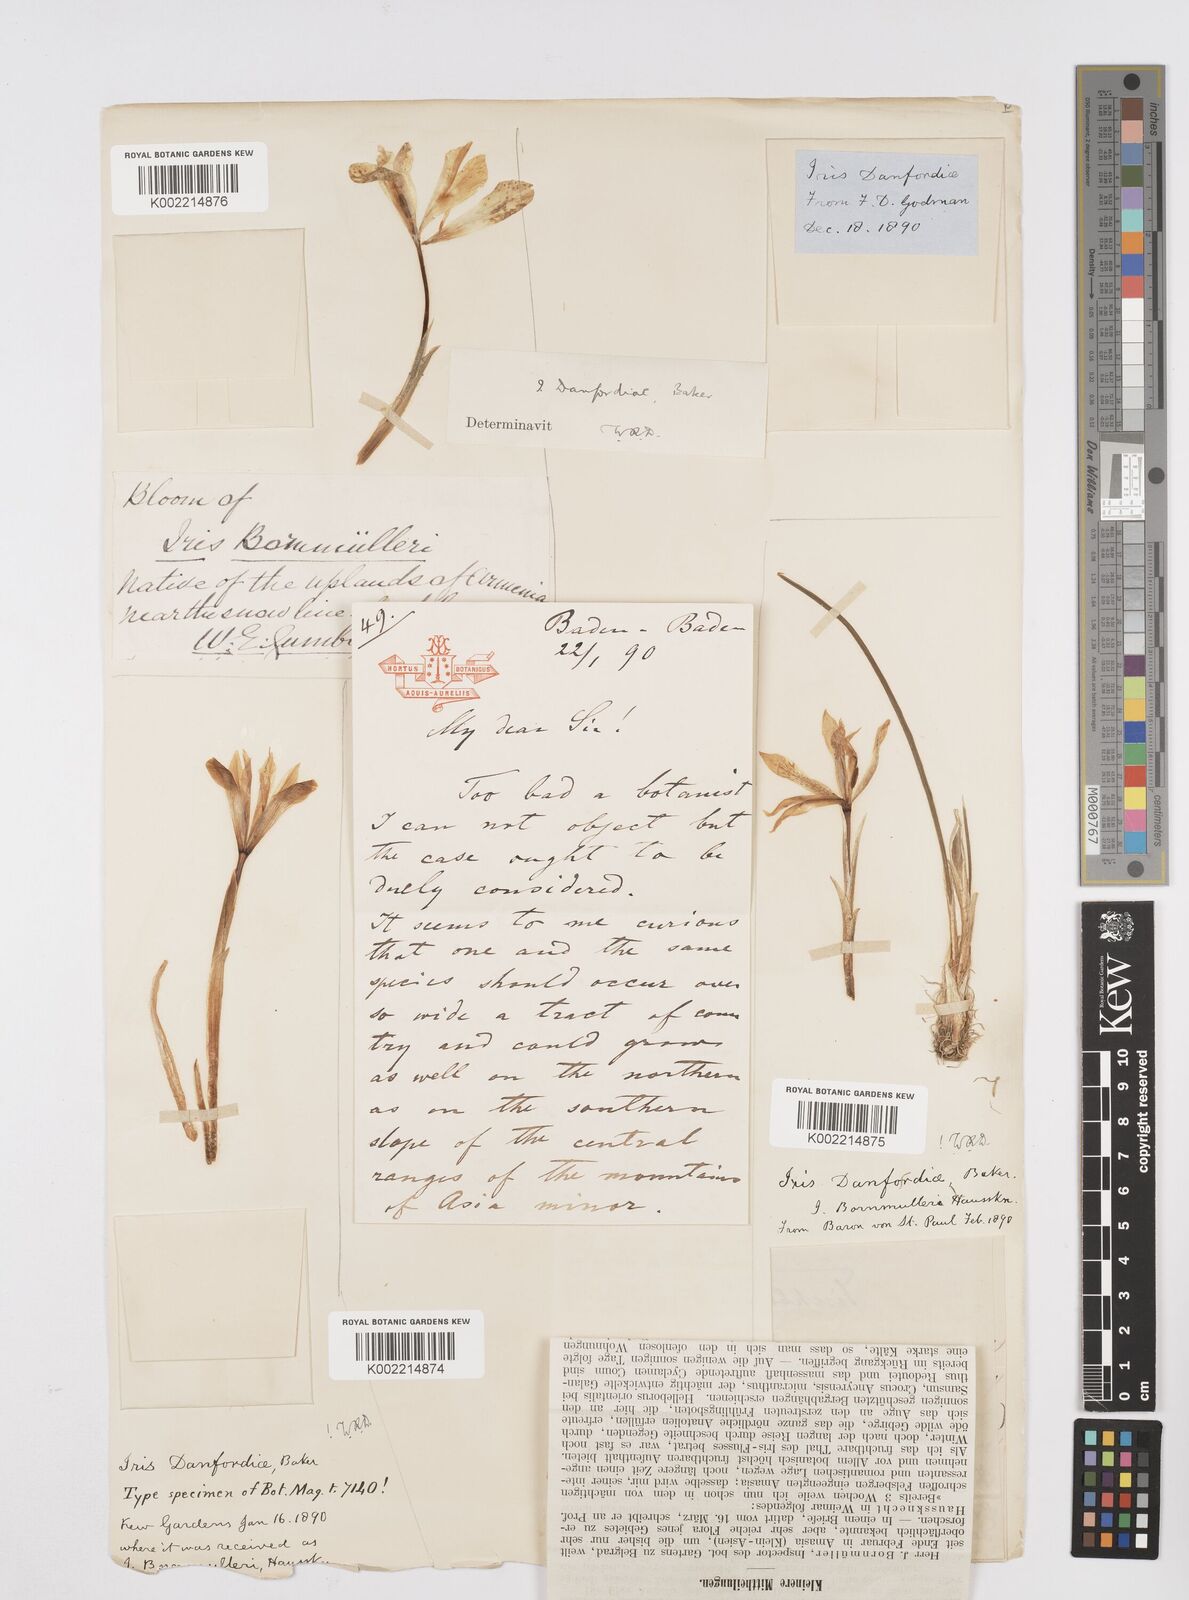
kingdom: Plantae
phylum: Tracheophyta
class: Liliopsida
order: Asparagales
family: Iridaceae
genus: Iris
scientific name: Iris danfordiae
